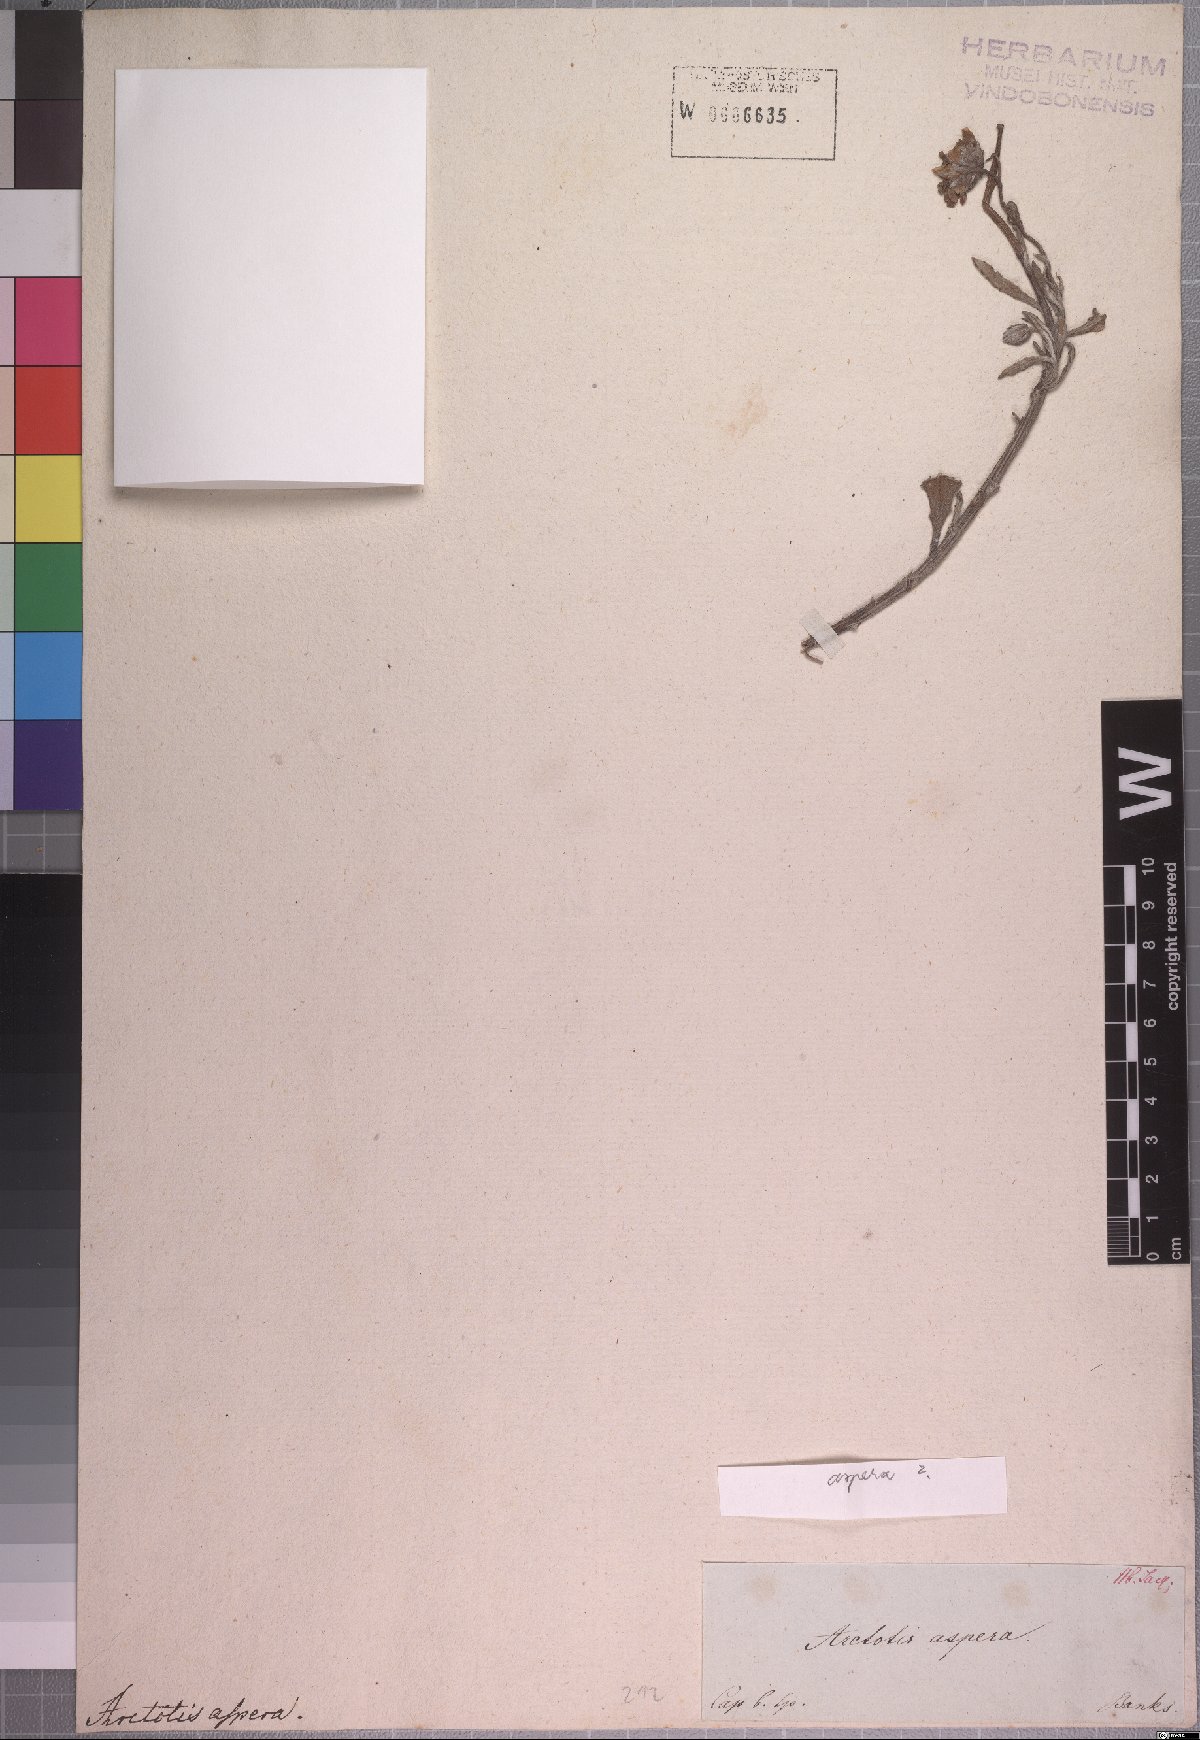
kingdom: Plantae
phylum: Tracheophyta
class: Magnoliopsida
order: Asterales
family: Asteraceae
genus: Arctotis
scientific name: Arctotis aspera
